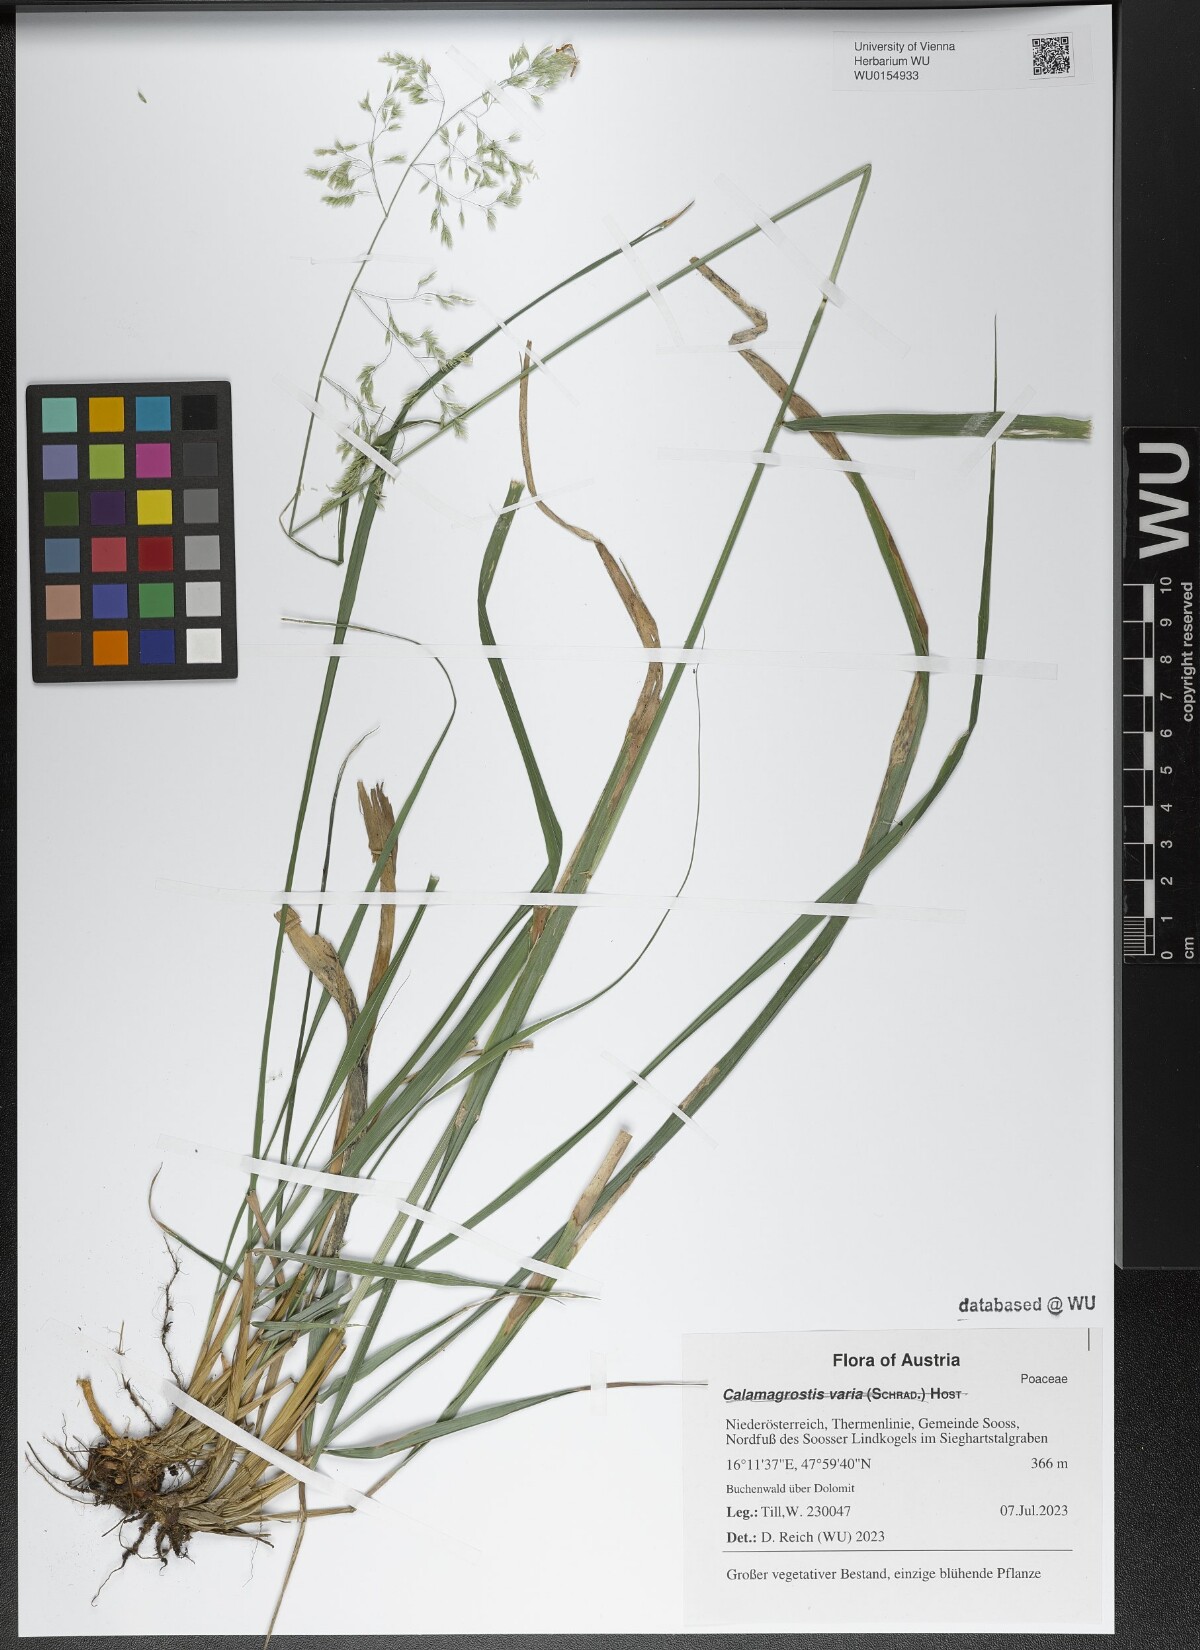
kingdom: Plantae
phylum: Tracheophyta
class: Liliopsida
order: Poales
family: Poaceae
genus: Calamagrostis
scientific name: Calamagrostis varia
